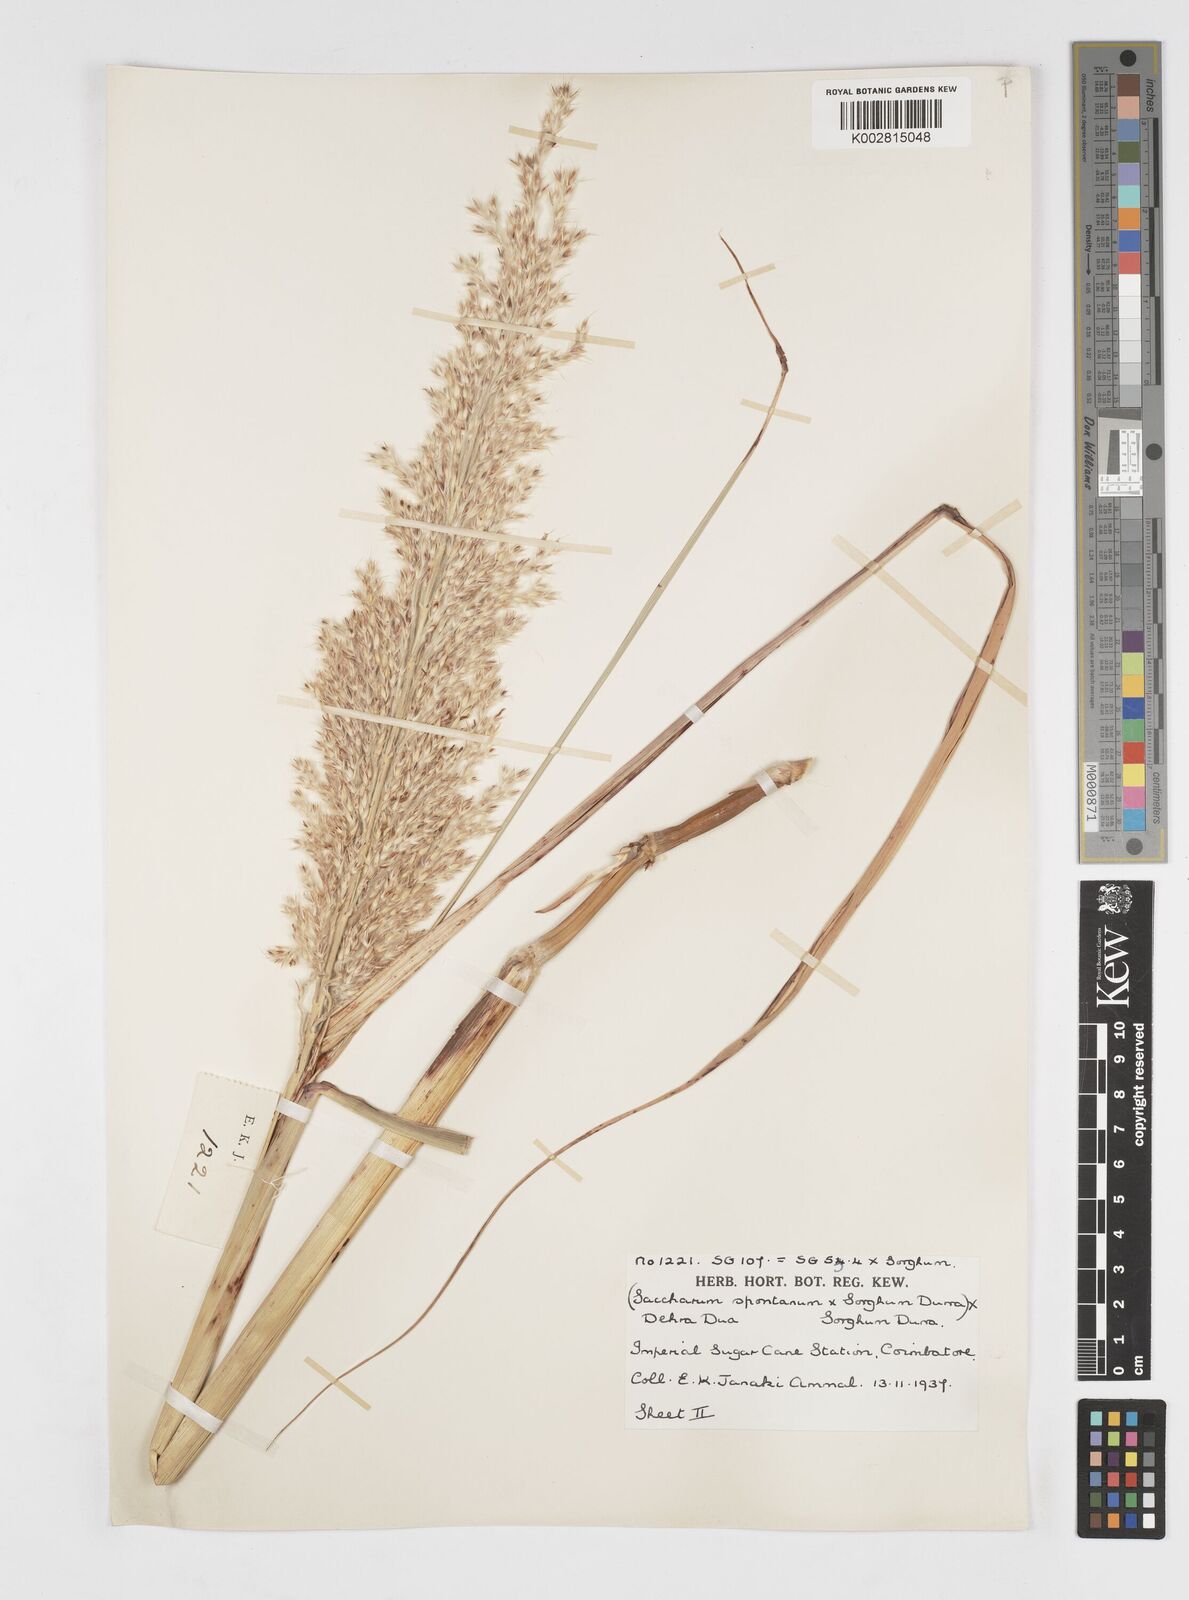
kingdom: Plantae
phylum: Tracheophyta
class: Liliopsida
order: Poales
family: Poaceae
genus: Saccharum
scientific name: Saccharum
